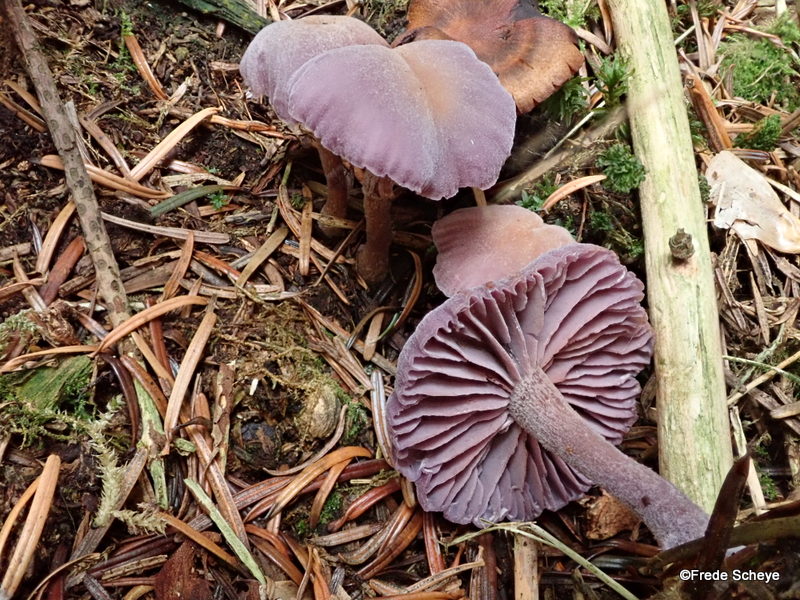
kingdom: Fungi
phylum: Basidiomycota
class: Agaricomycetes
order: Agaricales
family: Hydnangiaceae
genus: Laccaria
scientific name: Laccaria amethystina
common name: violet ametysthat
